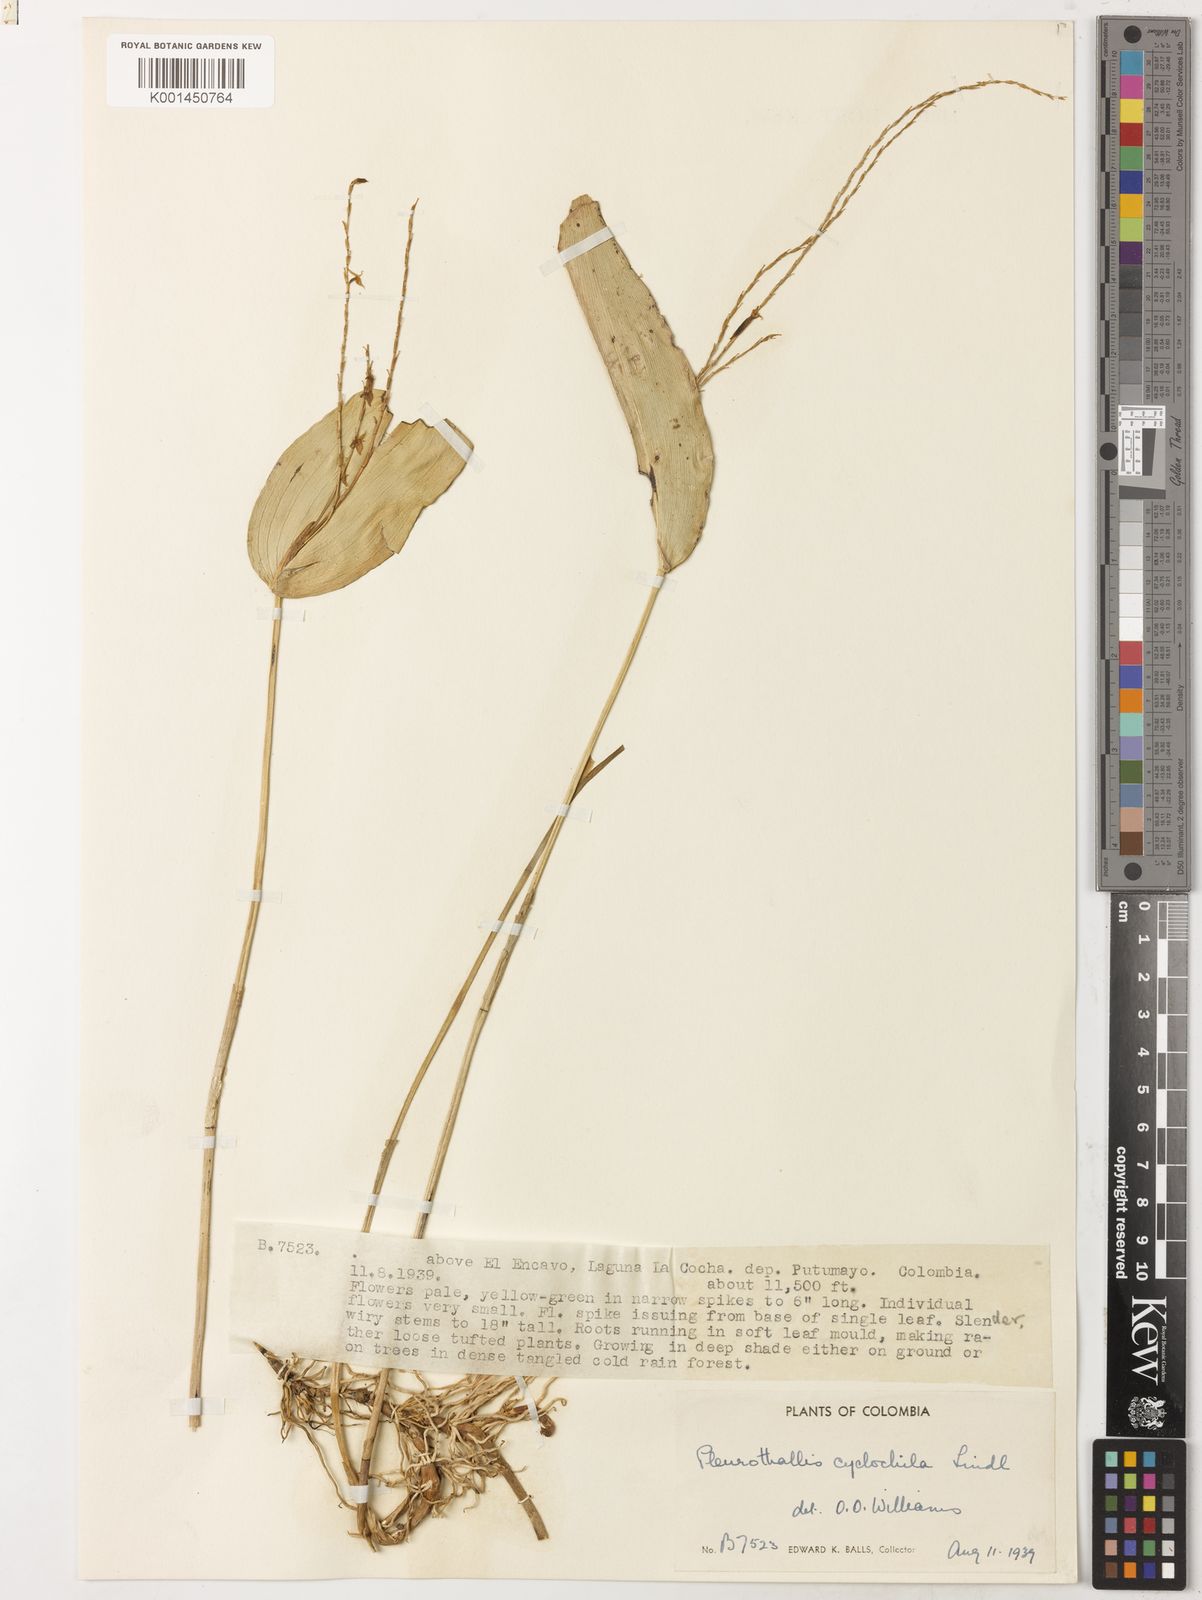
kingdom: Plantae
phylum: Tracheophyta
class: Liliopsida
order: Asparagales
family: Orchidaceae
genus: Pleurothallis
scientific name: Pleurothallis antennifera
